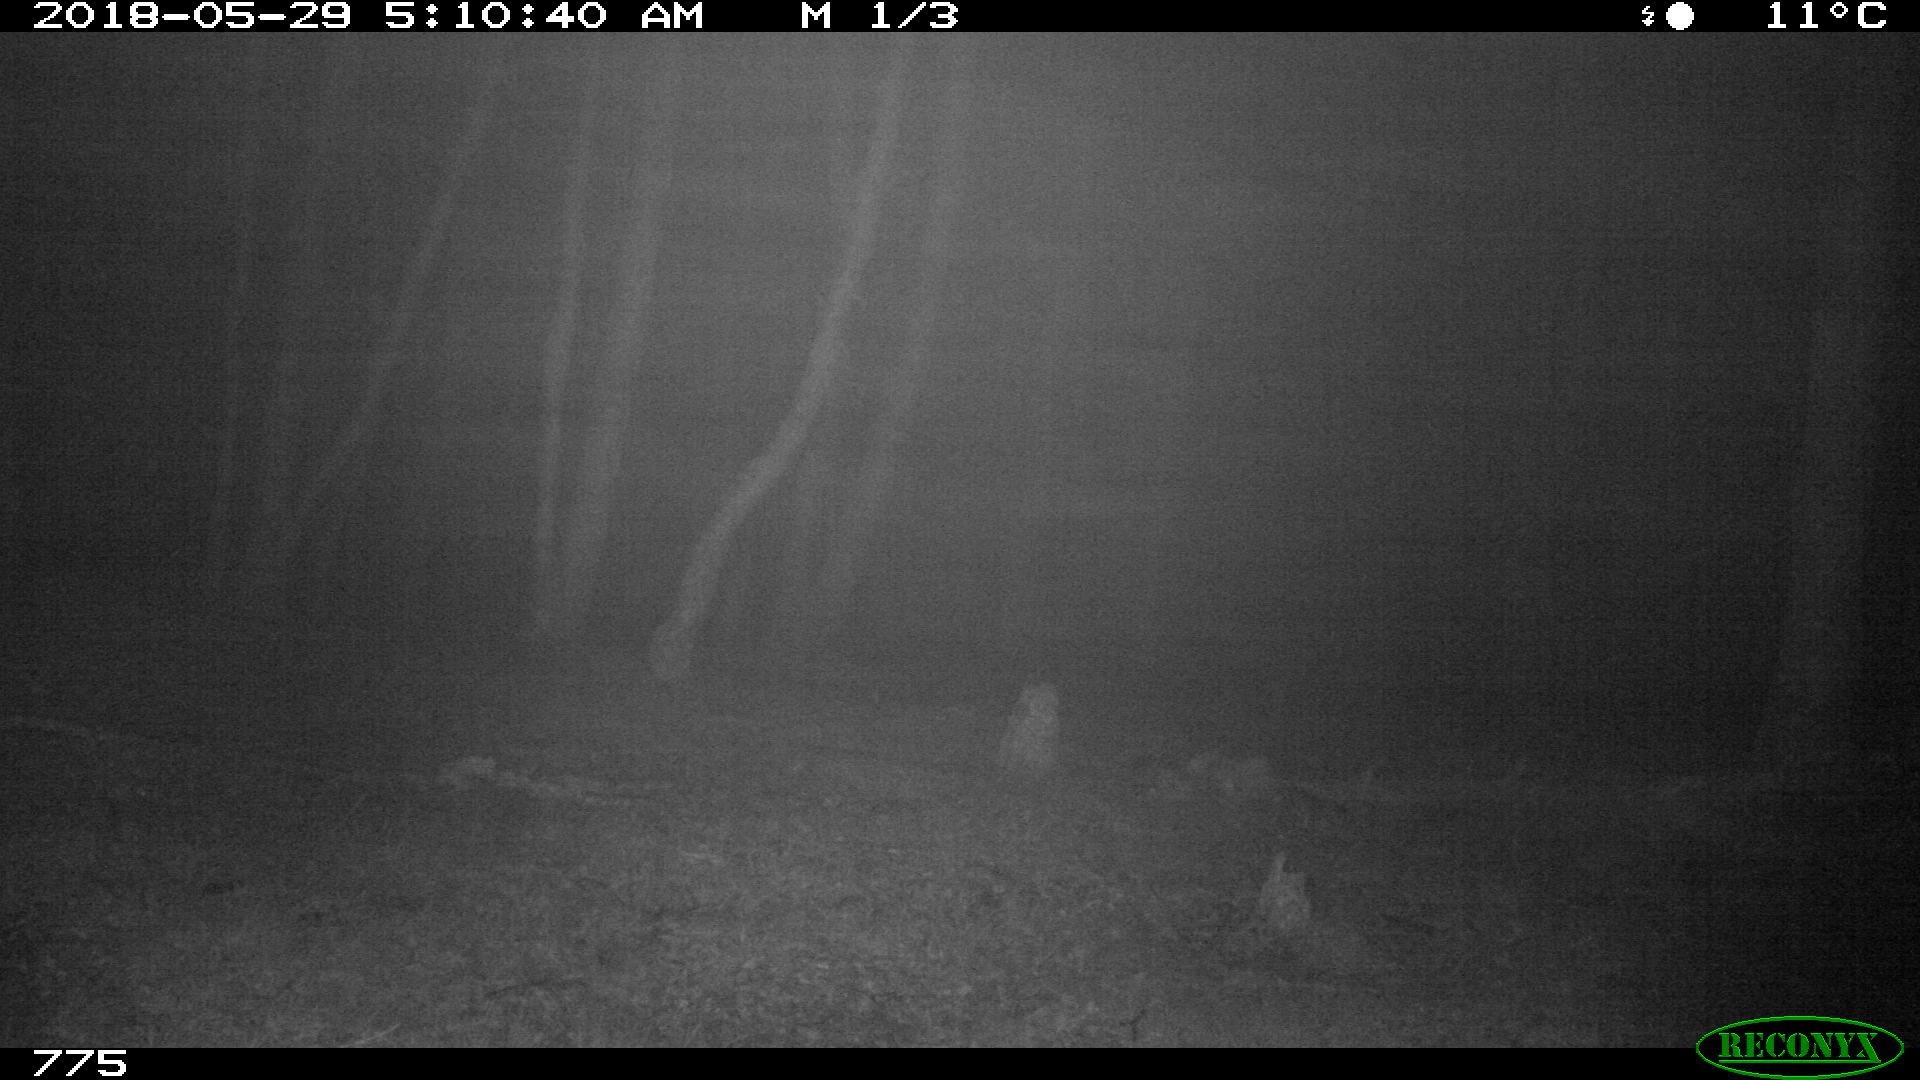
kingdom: Animalia
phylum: Chordata
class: Mammalia
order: Perissodactyla
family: Equidae
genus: Equus
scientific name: Equus caballus
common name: Horse
